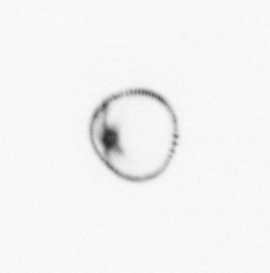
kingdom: Chromista
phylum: Myzozoa
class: Dinophyceae
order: Noctilucales
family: Noctilucaceae
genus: Noctiluca
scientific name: Noctiluca scintillans
